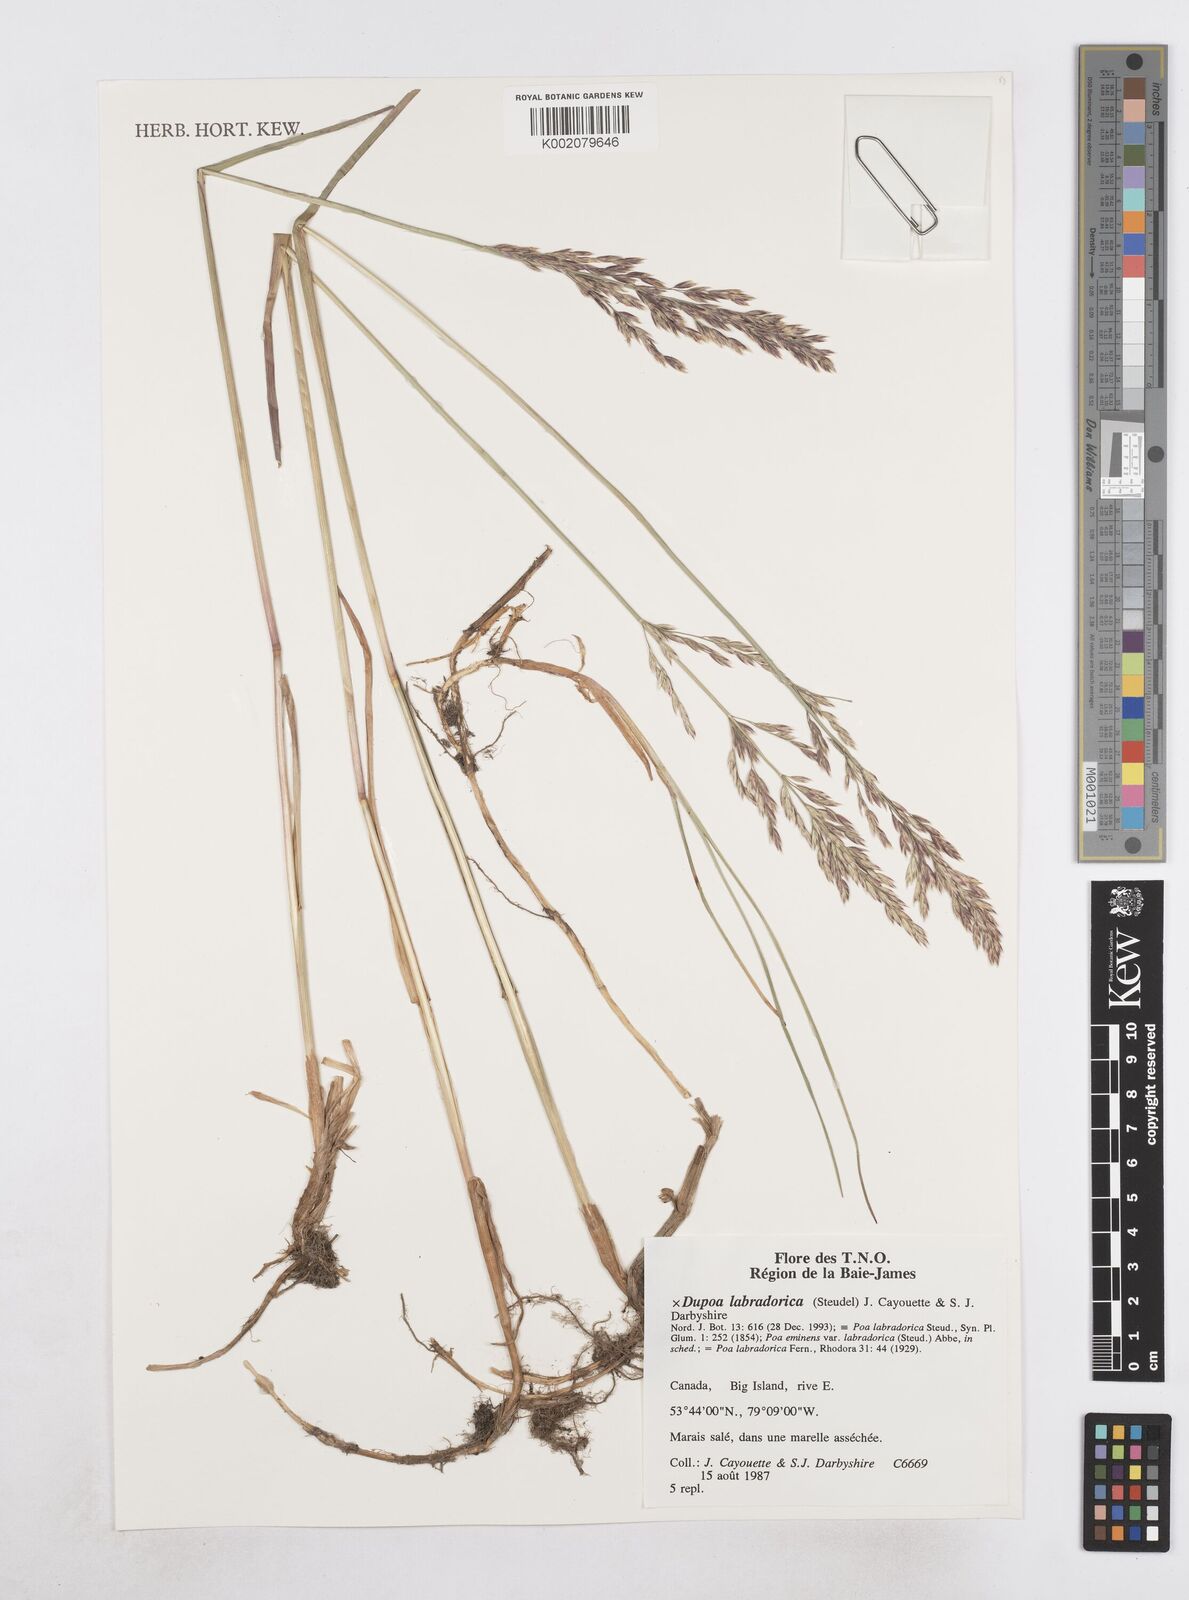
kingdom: Plantae
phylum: Tracheophyta
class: Liliopsida
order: Poales
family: Poaceae
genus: Dupontia
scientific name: Dupontia
